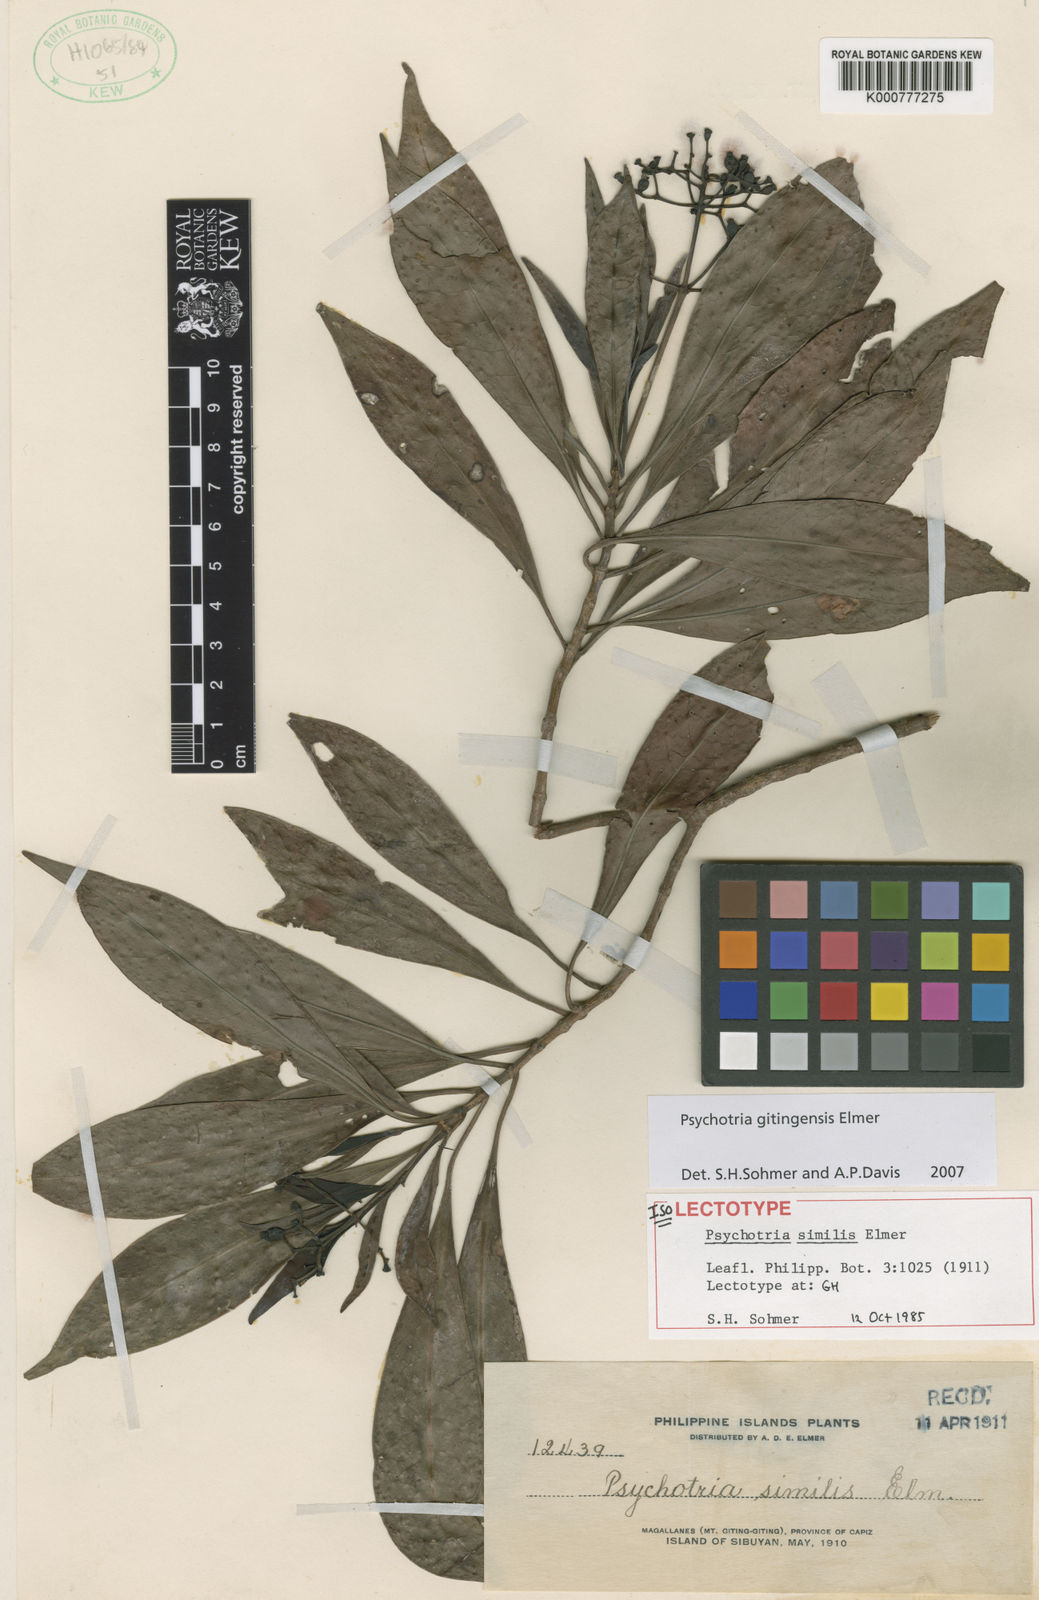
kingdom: Plantae
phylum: Tracheophyta
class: Magnoliopsida
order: Gentianales
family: Rubiaceae
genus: Psychotria
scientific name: Psychotria gitingensis
